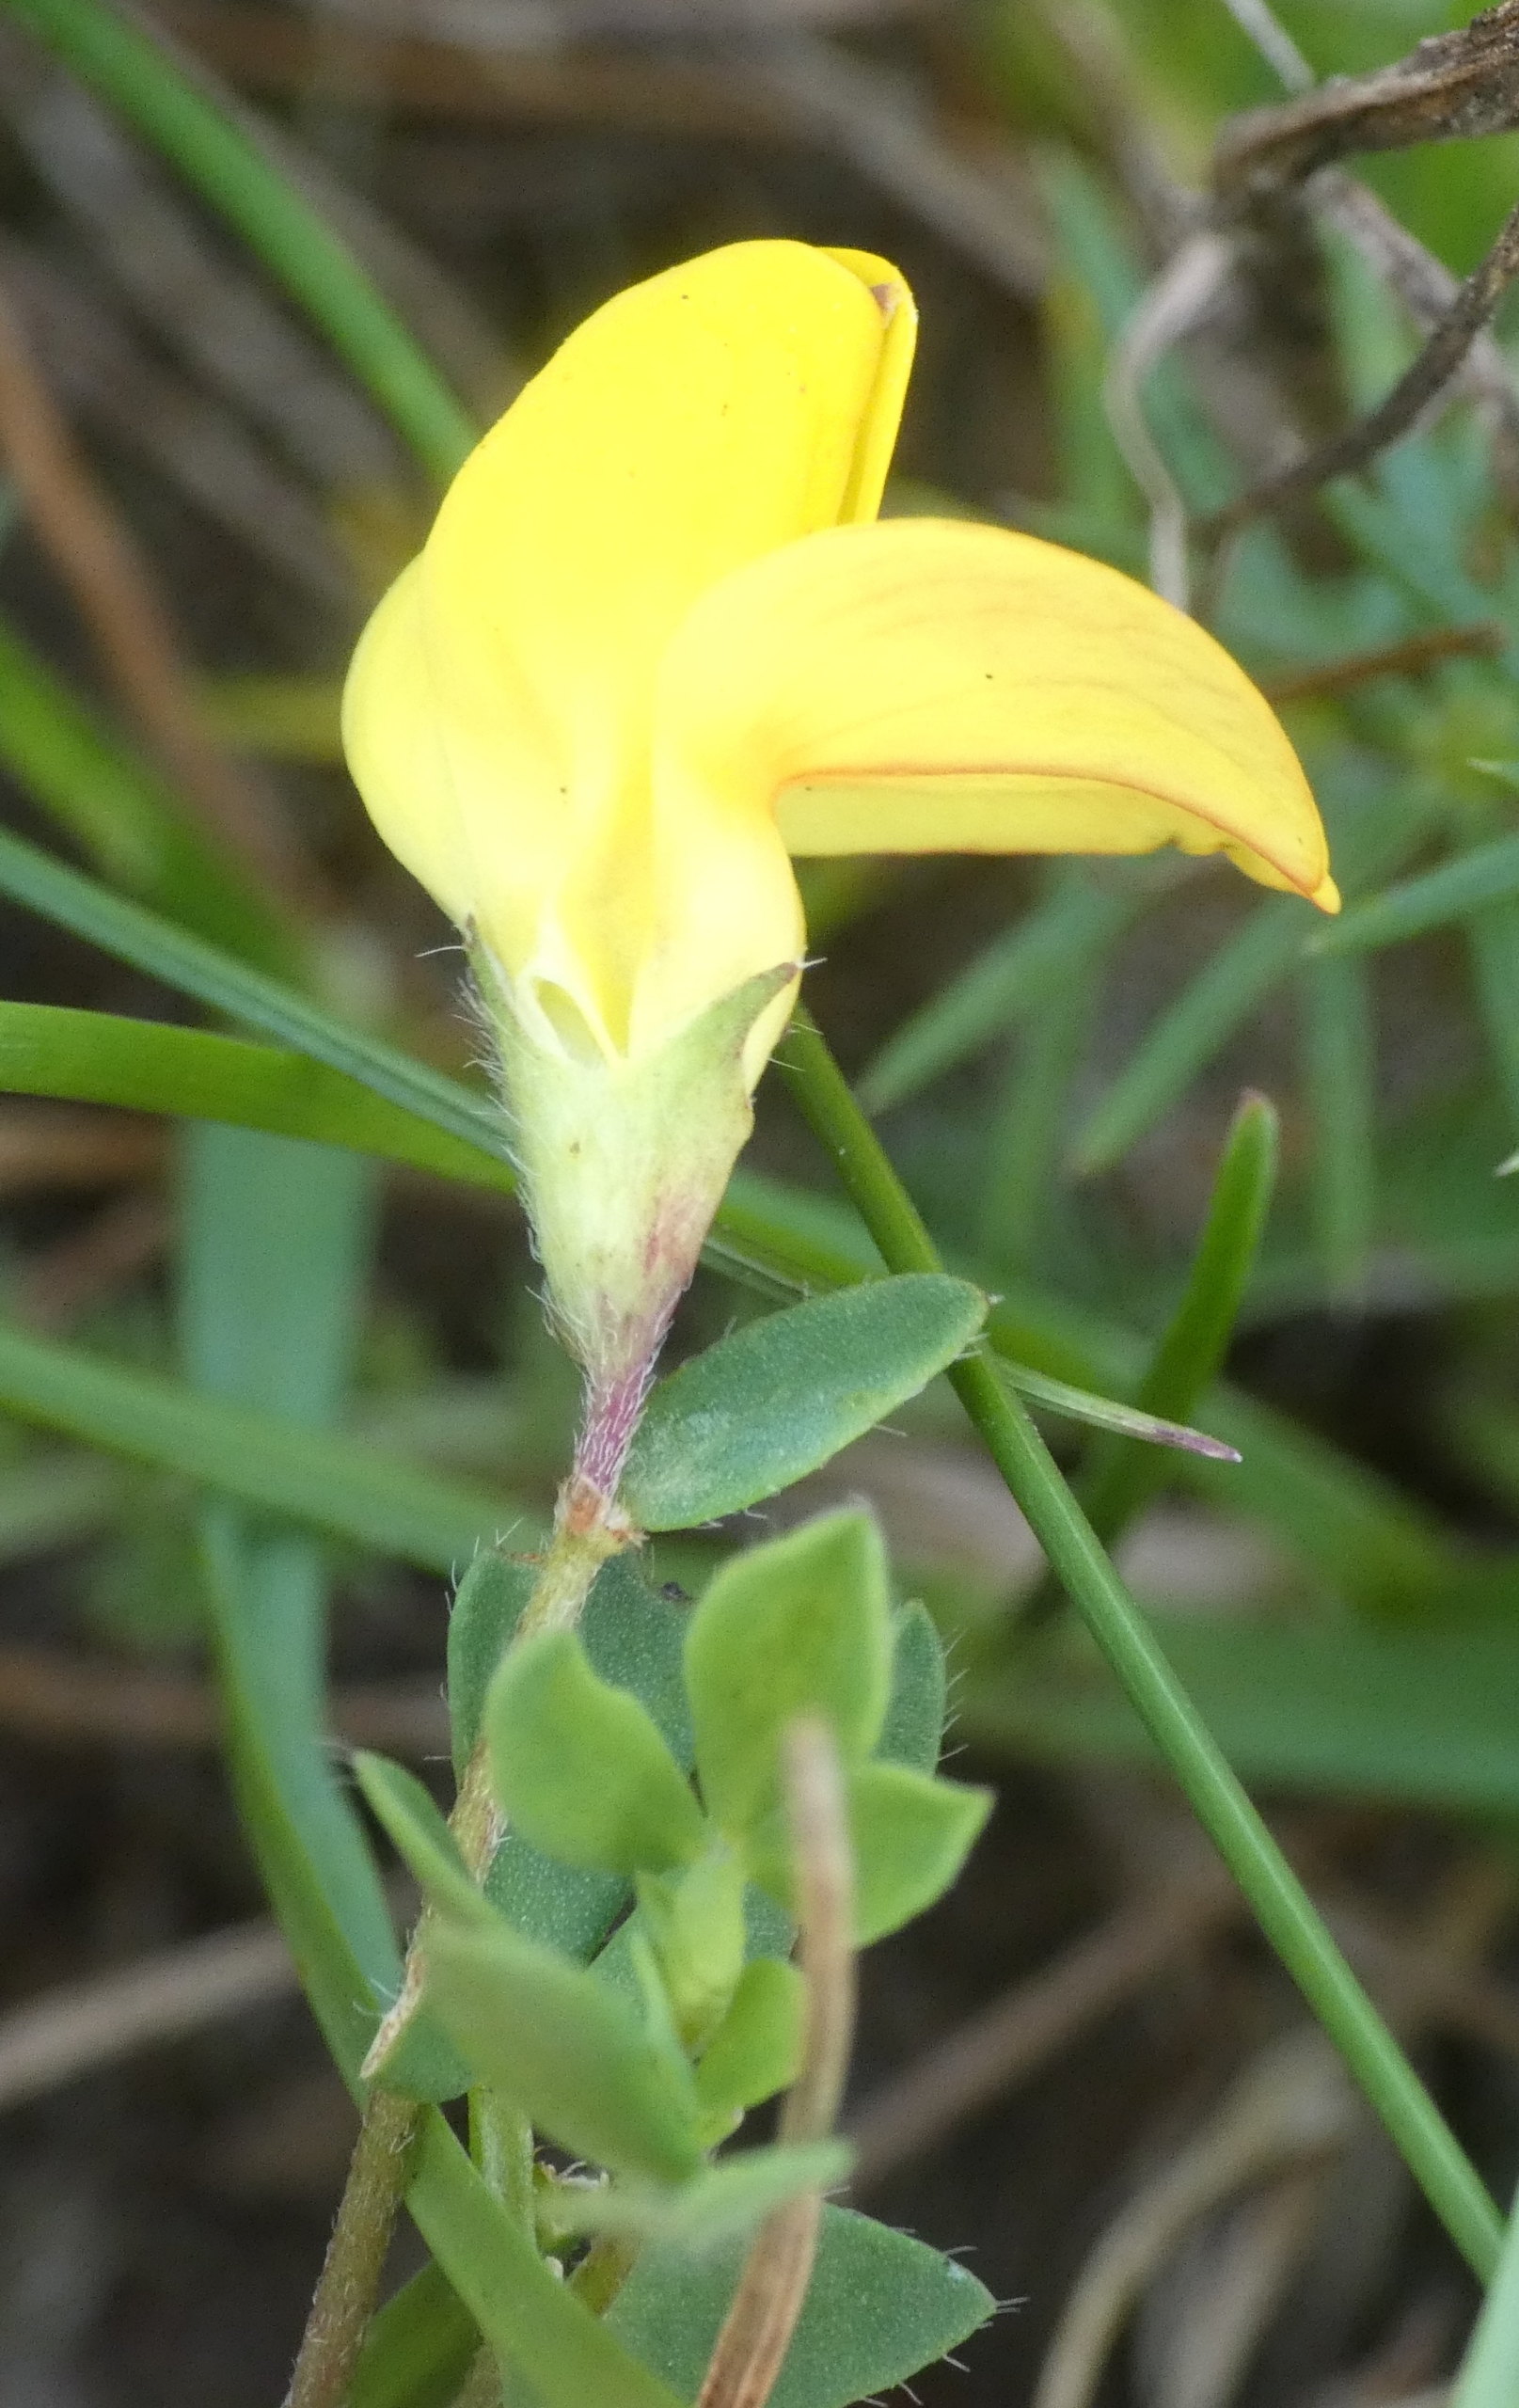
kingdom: Plantae
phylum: Tracheophyta
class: Magnoliopsida
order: Fabales
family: Fabaceae
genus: Lotus
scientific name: Lotus corniculatus
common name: Almindelig kællingetand
